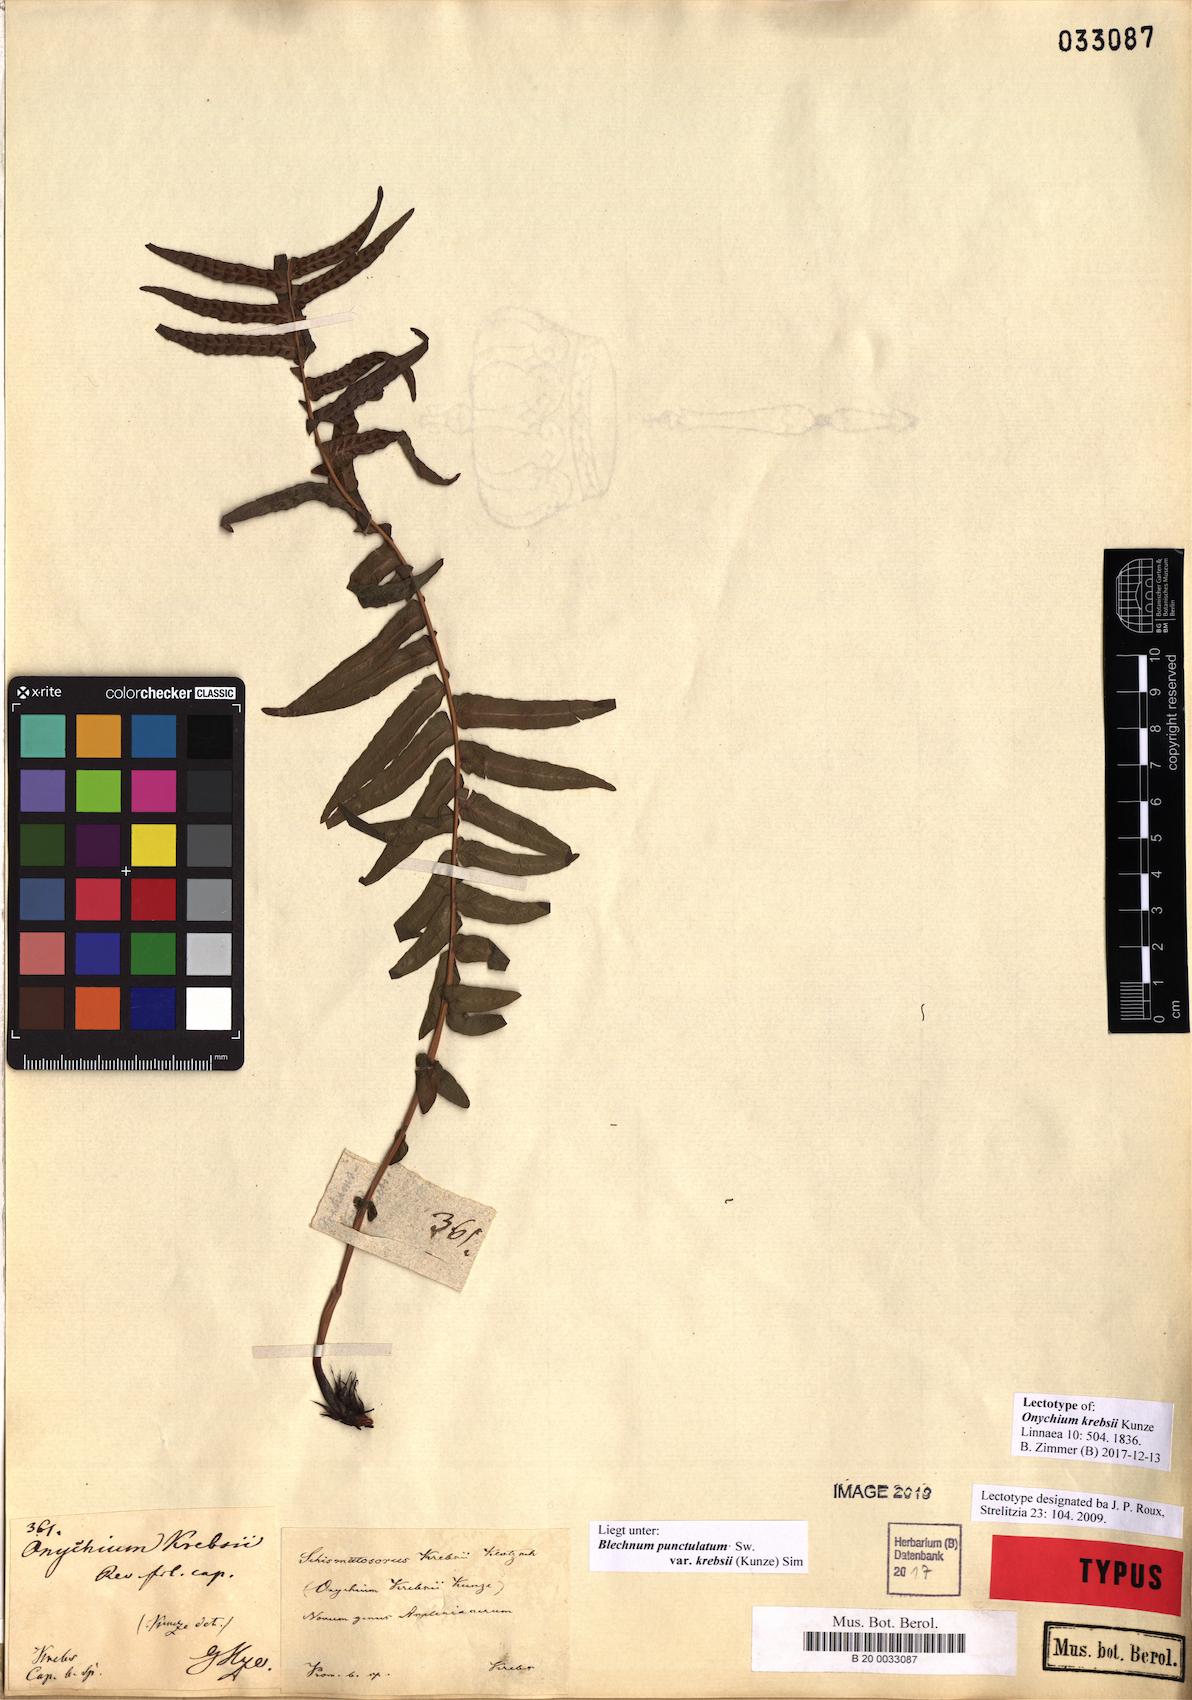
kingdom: Plantae
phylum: Tracheophyta
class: Polypodiopsida
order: Polypodiales
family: Blechnaceae
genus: Blechnum
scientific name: Blechnum punctulatum
